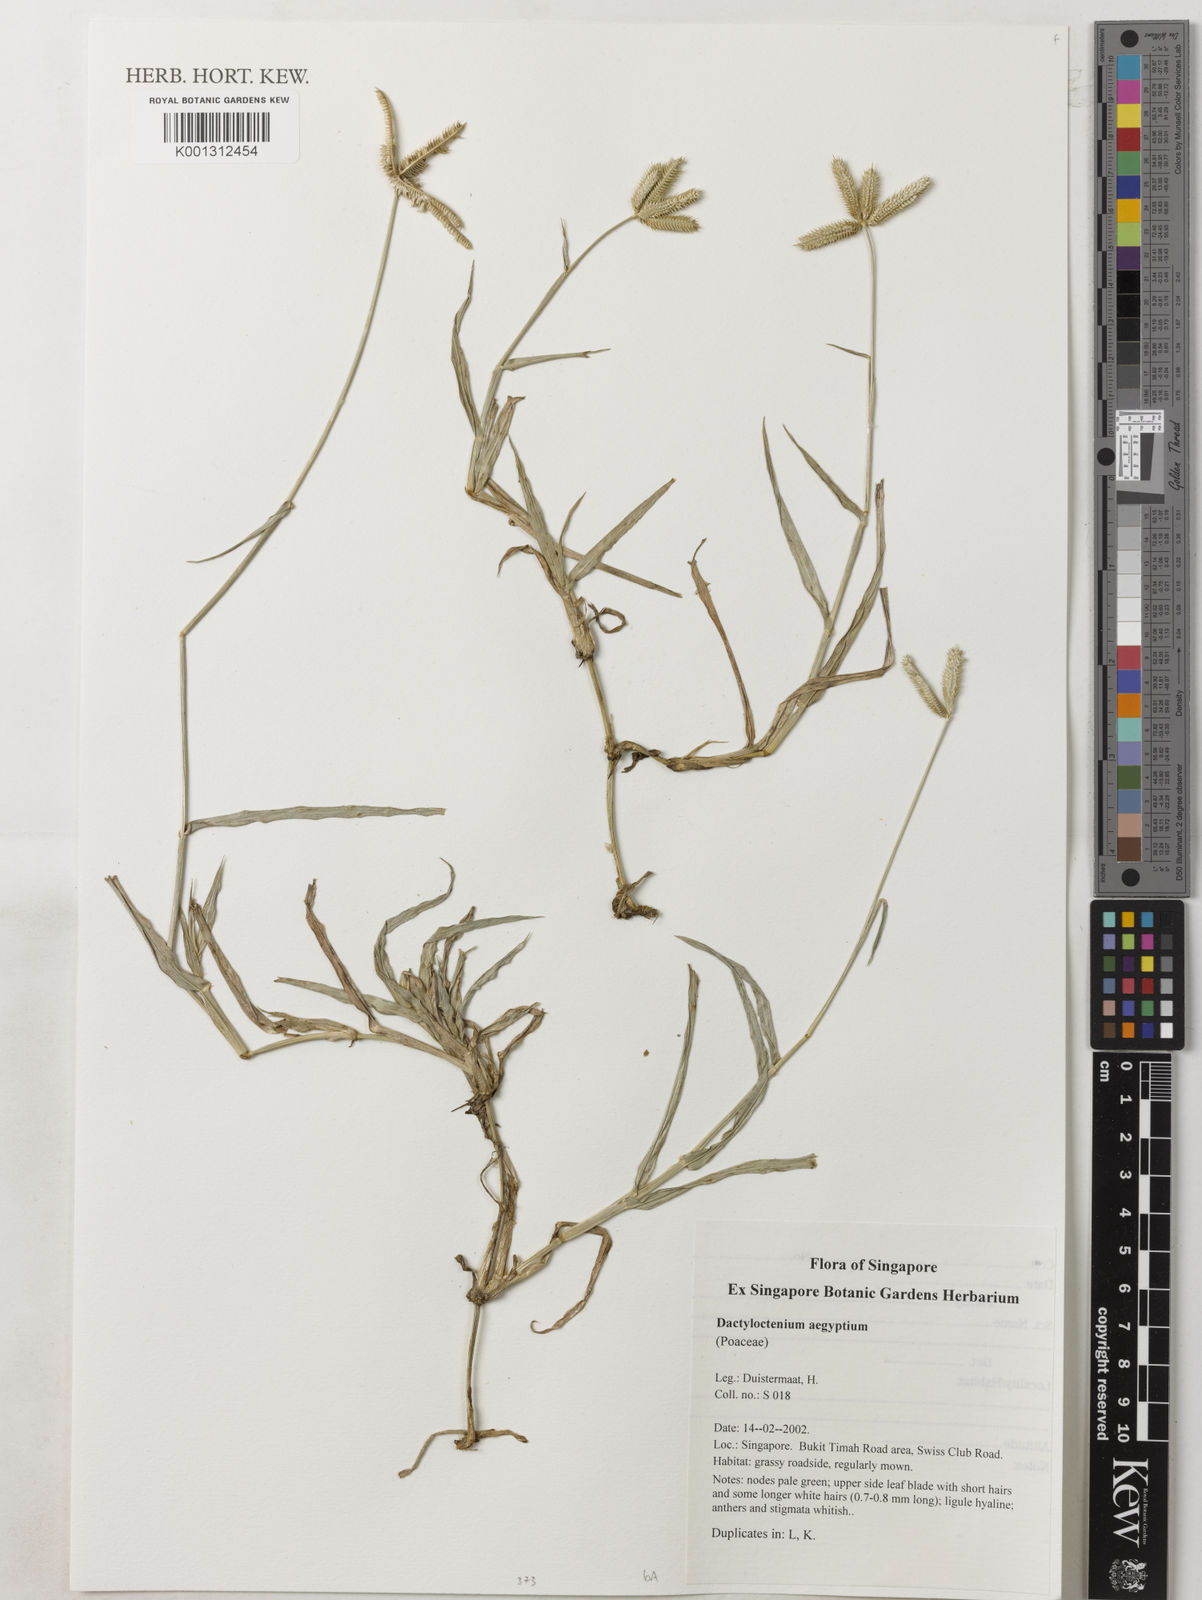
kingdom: Plantae
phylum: Tracheophyta
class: Liliopsida
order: Poales
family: Poaceae
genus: Dactyloctenium
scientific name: Dactyloctenium aegyptium
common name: Egyptian grass
